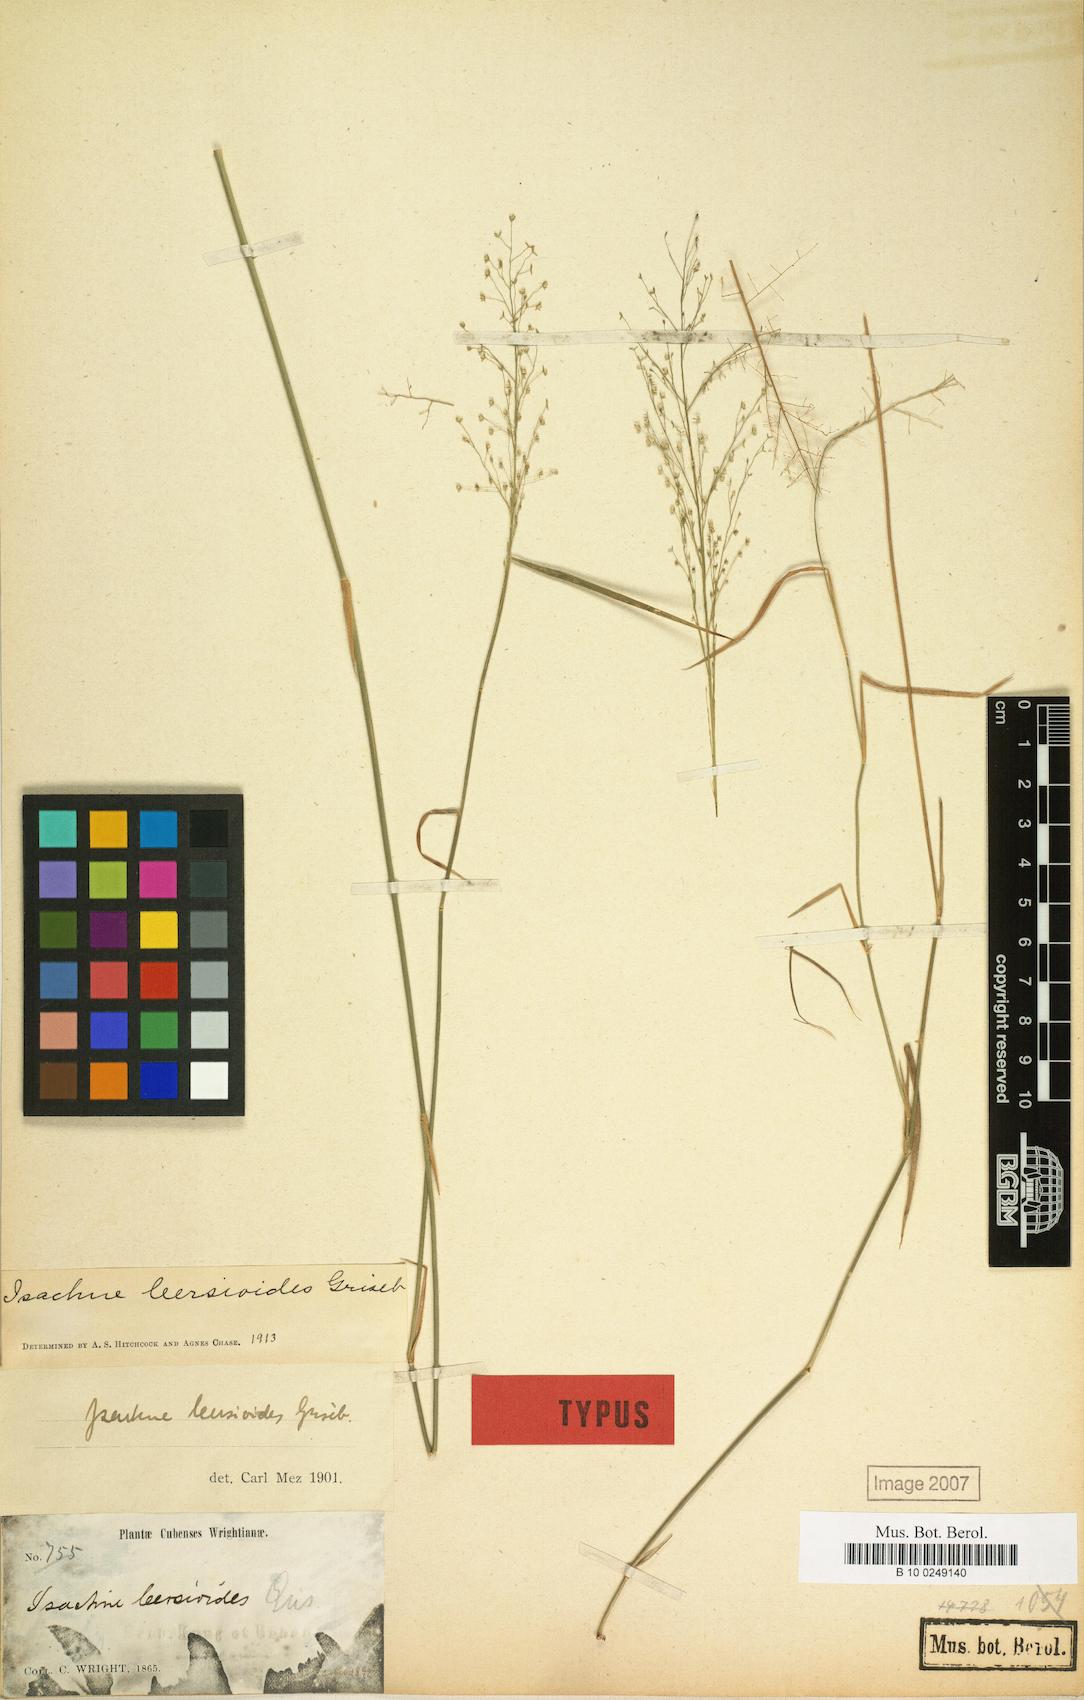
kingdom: Plantae
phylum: Tracheophyta
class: Liliopsida
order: Poales
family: Poaceae
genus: Isachne
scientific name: Isachne leersioides
